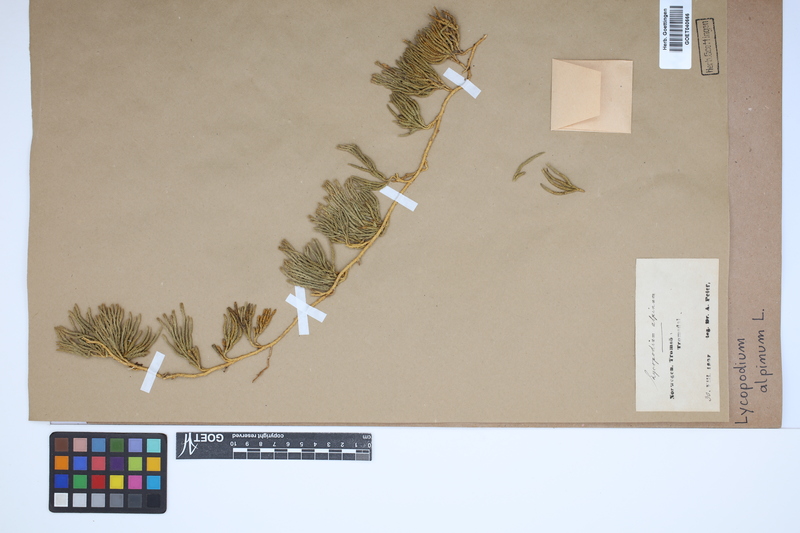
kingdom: Plantae
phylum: Tracheophyta
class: Lycopodiopsida
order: Lycopodiales
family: Lycopodiaceae
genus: Diphasiastrum
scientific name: Diphasiastrum alpinum
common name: Alpine clubmoss
